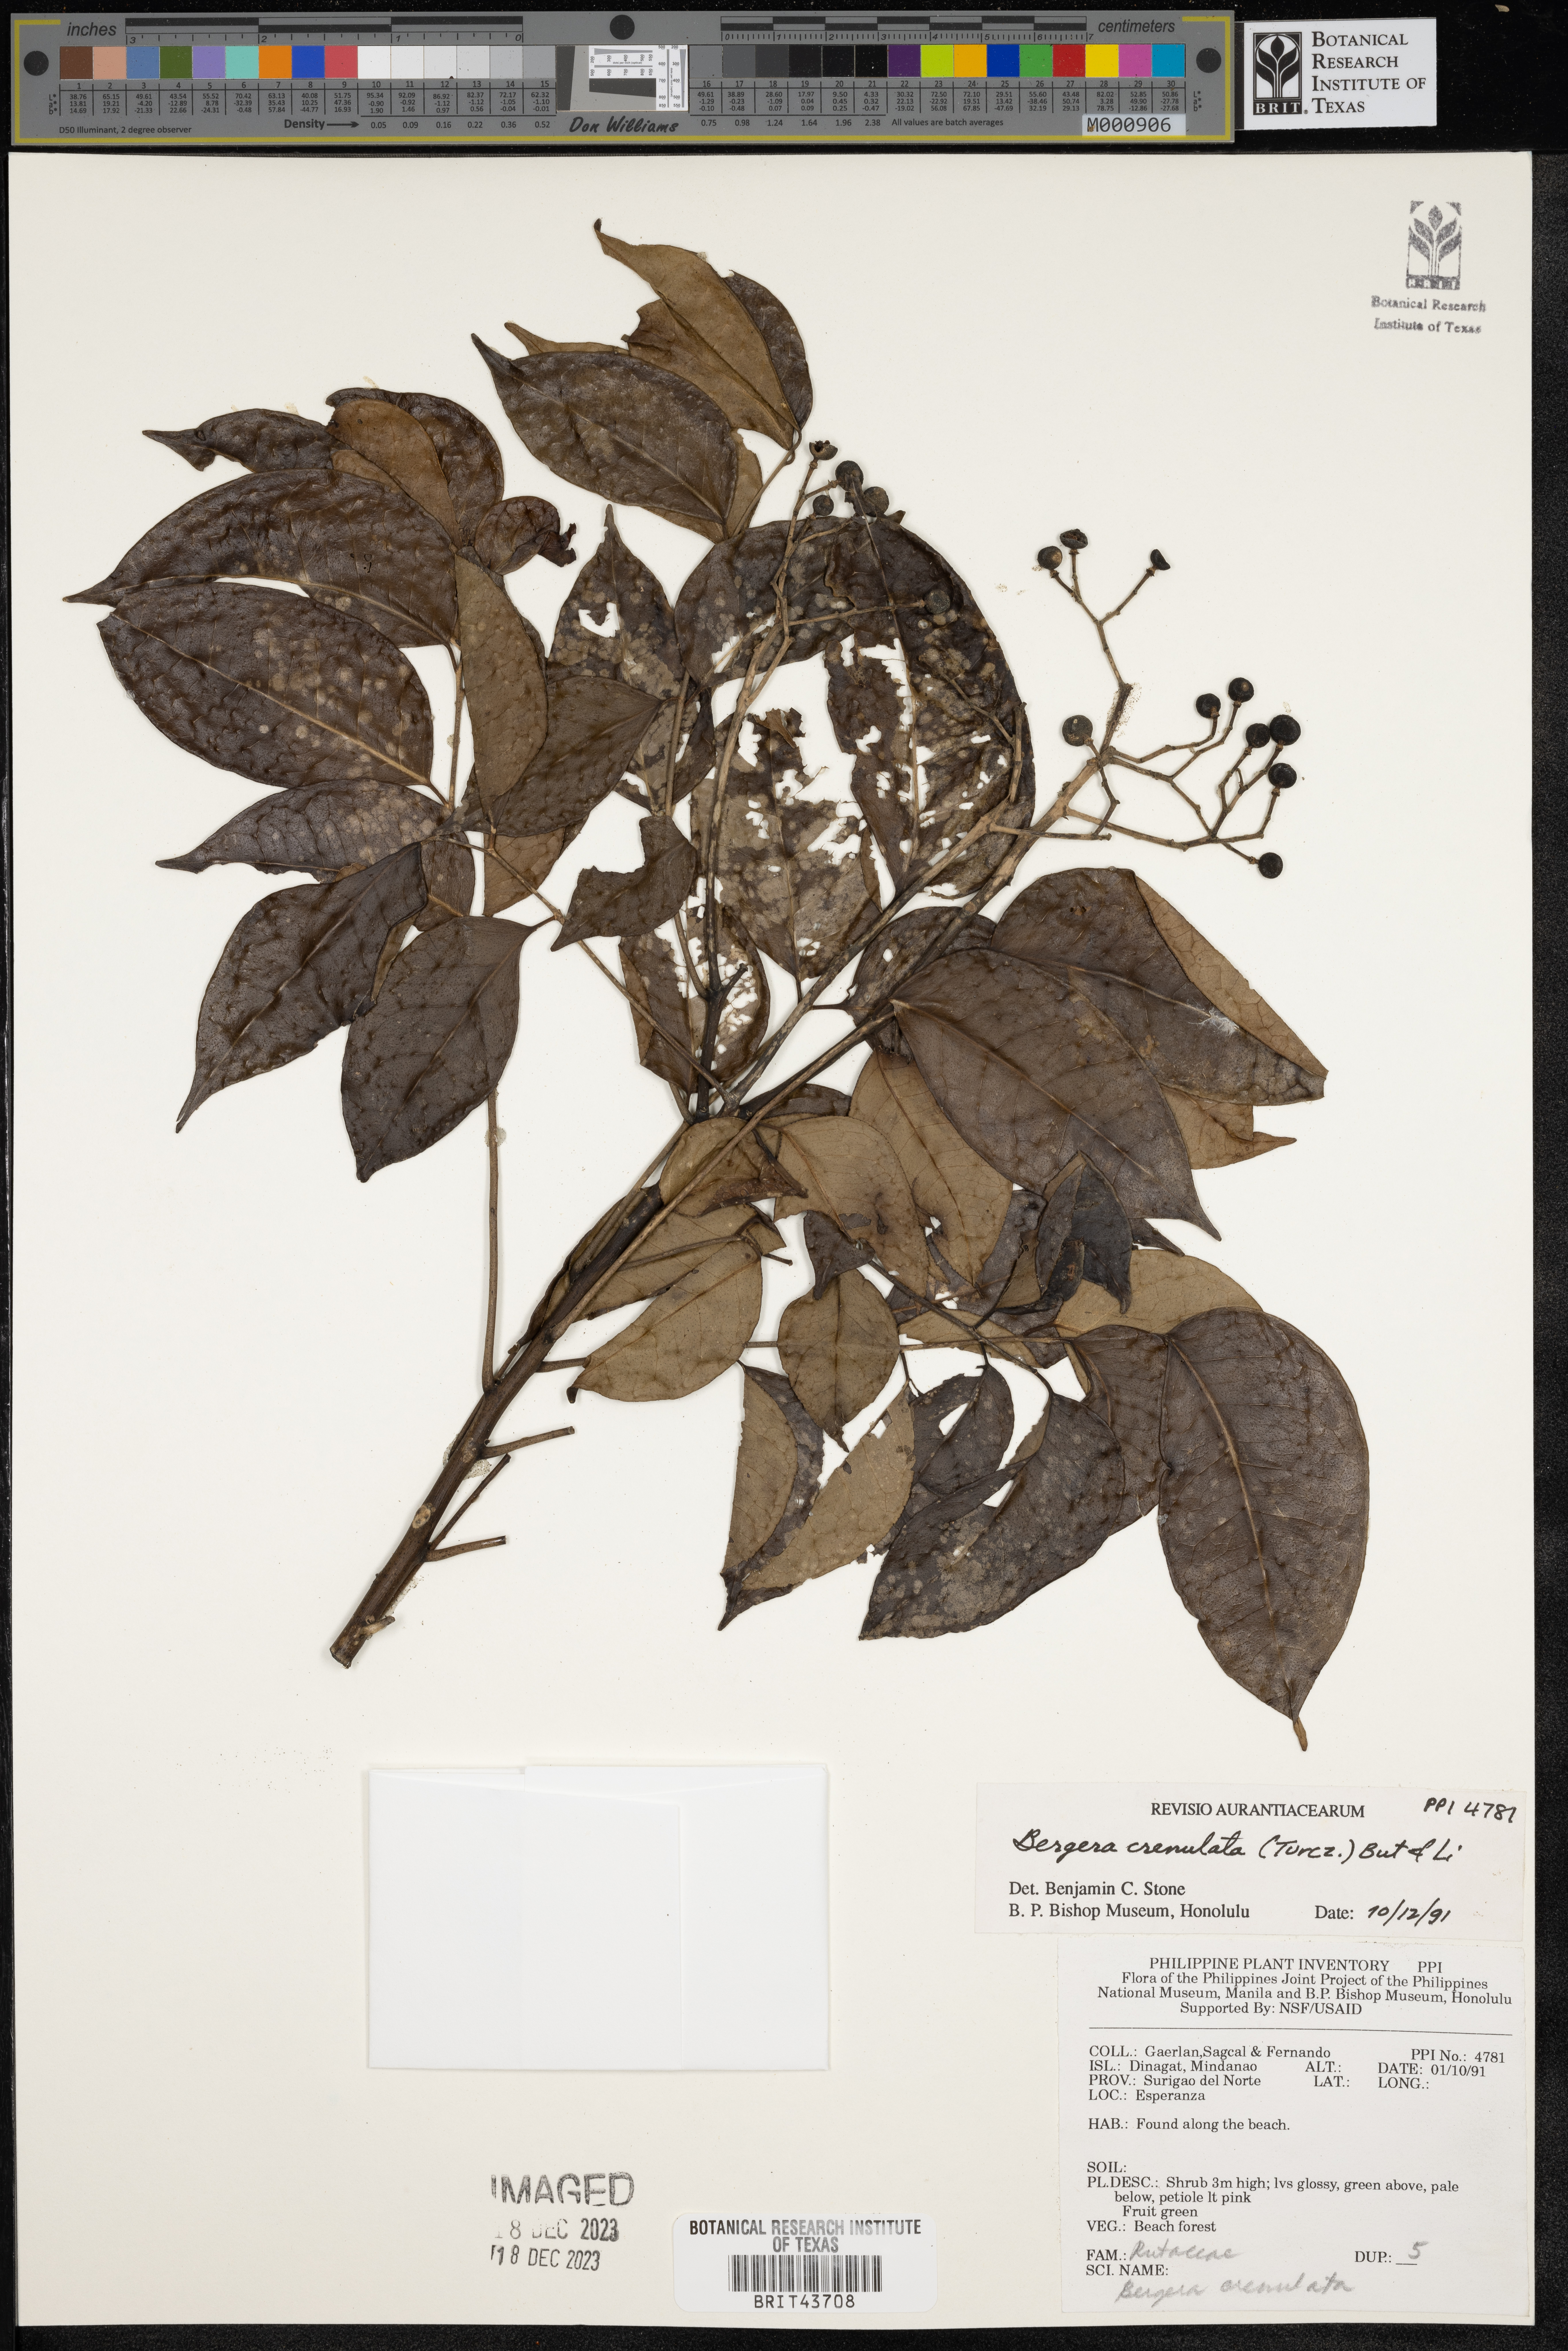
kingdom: Plantae
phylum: Tracheophyta
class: Magnoliopsida
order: Sapindales
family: Rutaceae
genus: Bergera
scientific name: Bergera crenulata
